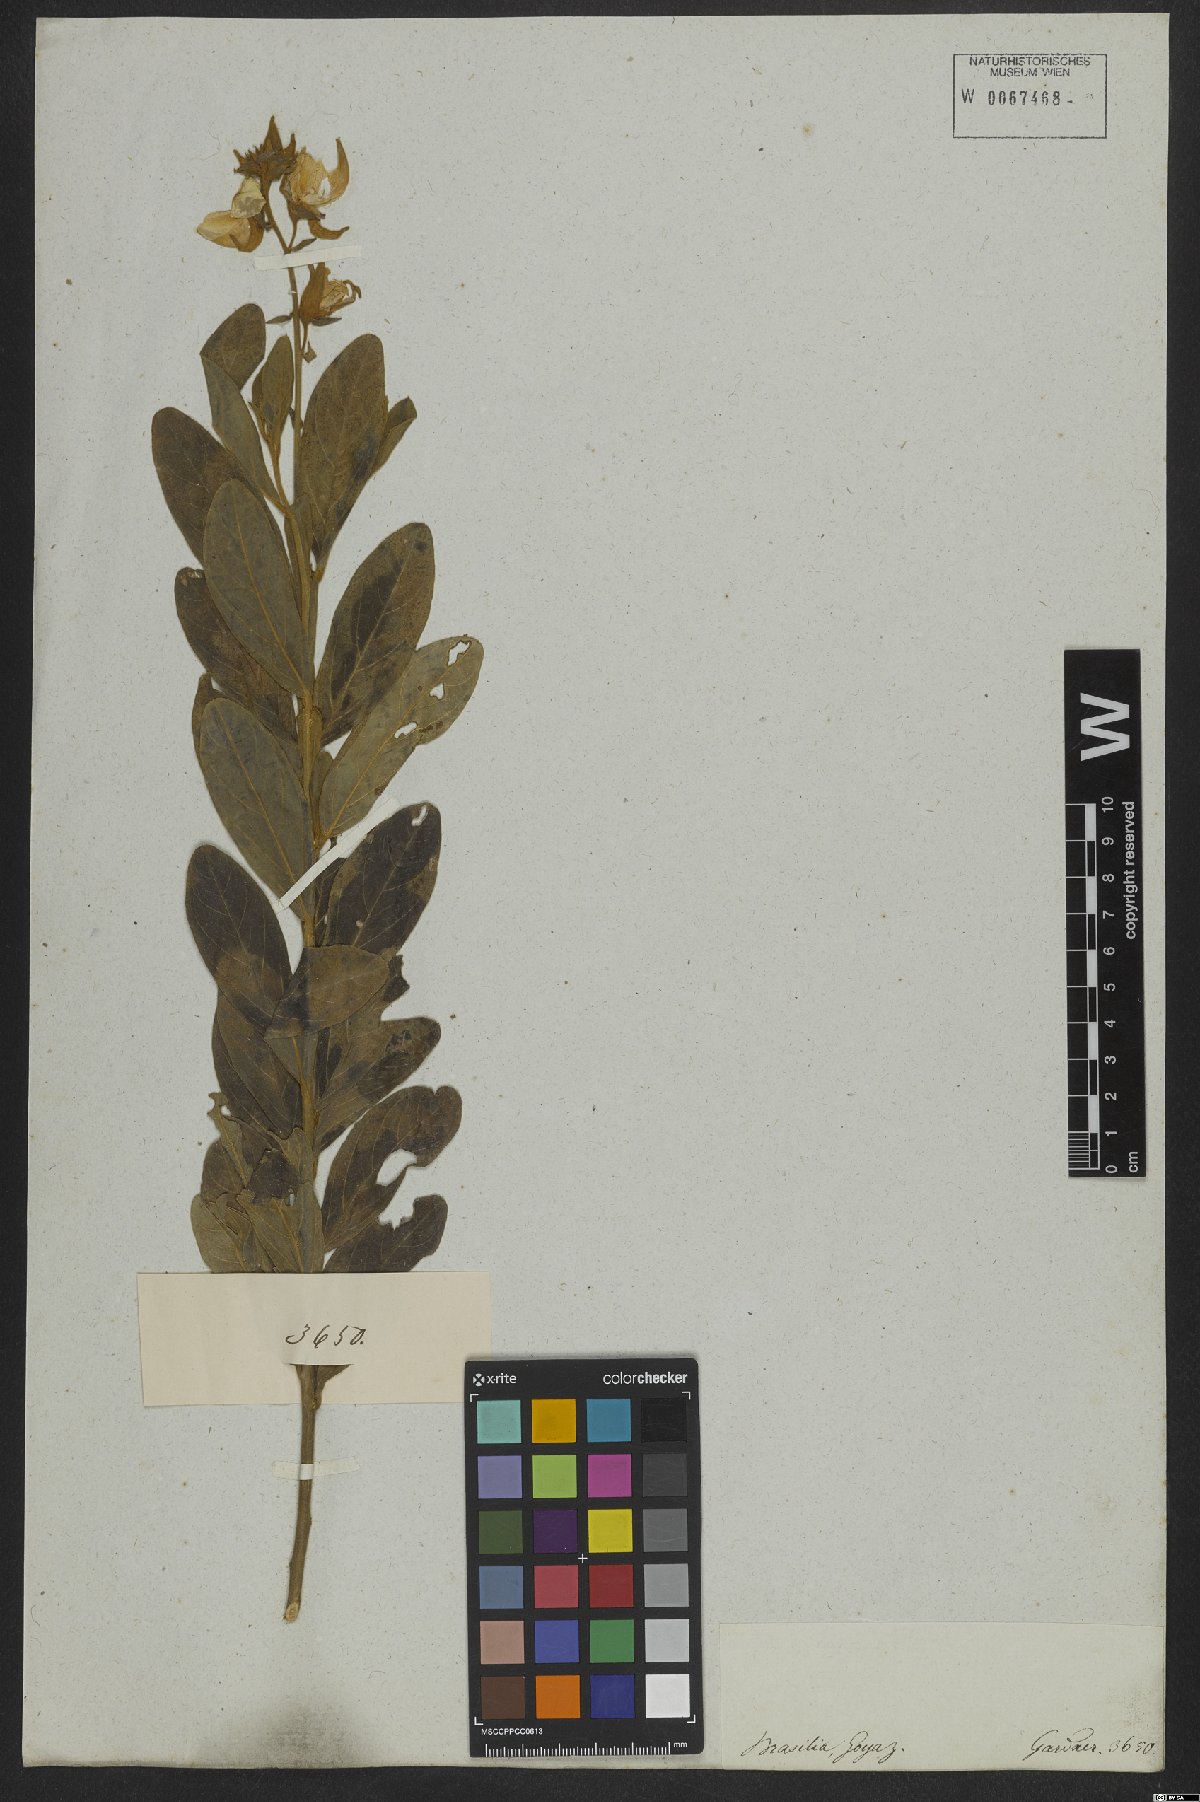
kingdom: Plantae
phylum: Tracheophyta
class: Magnoliopsida
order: Fabales
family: Fabaceae
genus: Crotalaria
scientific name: Crotalaria paulina
